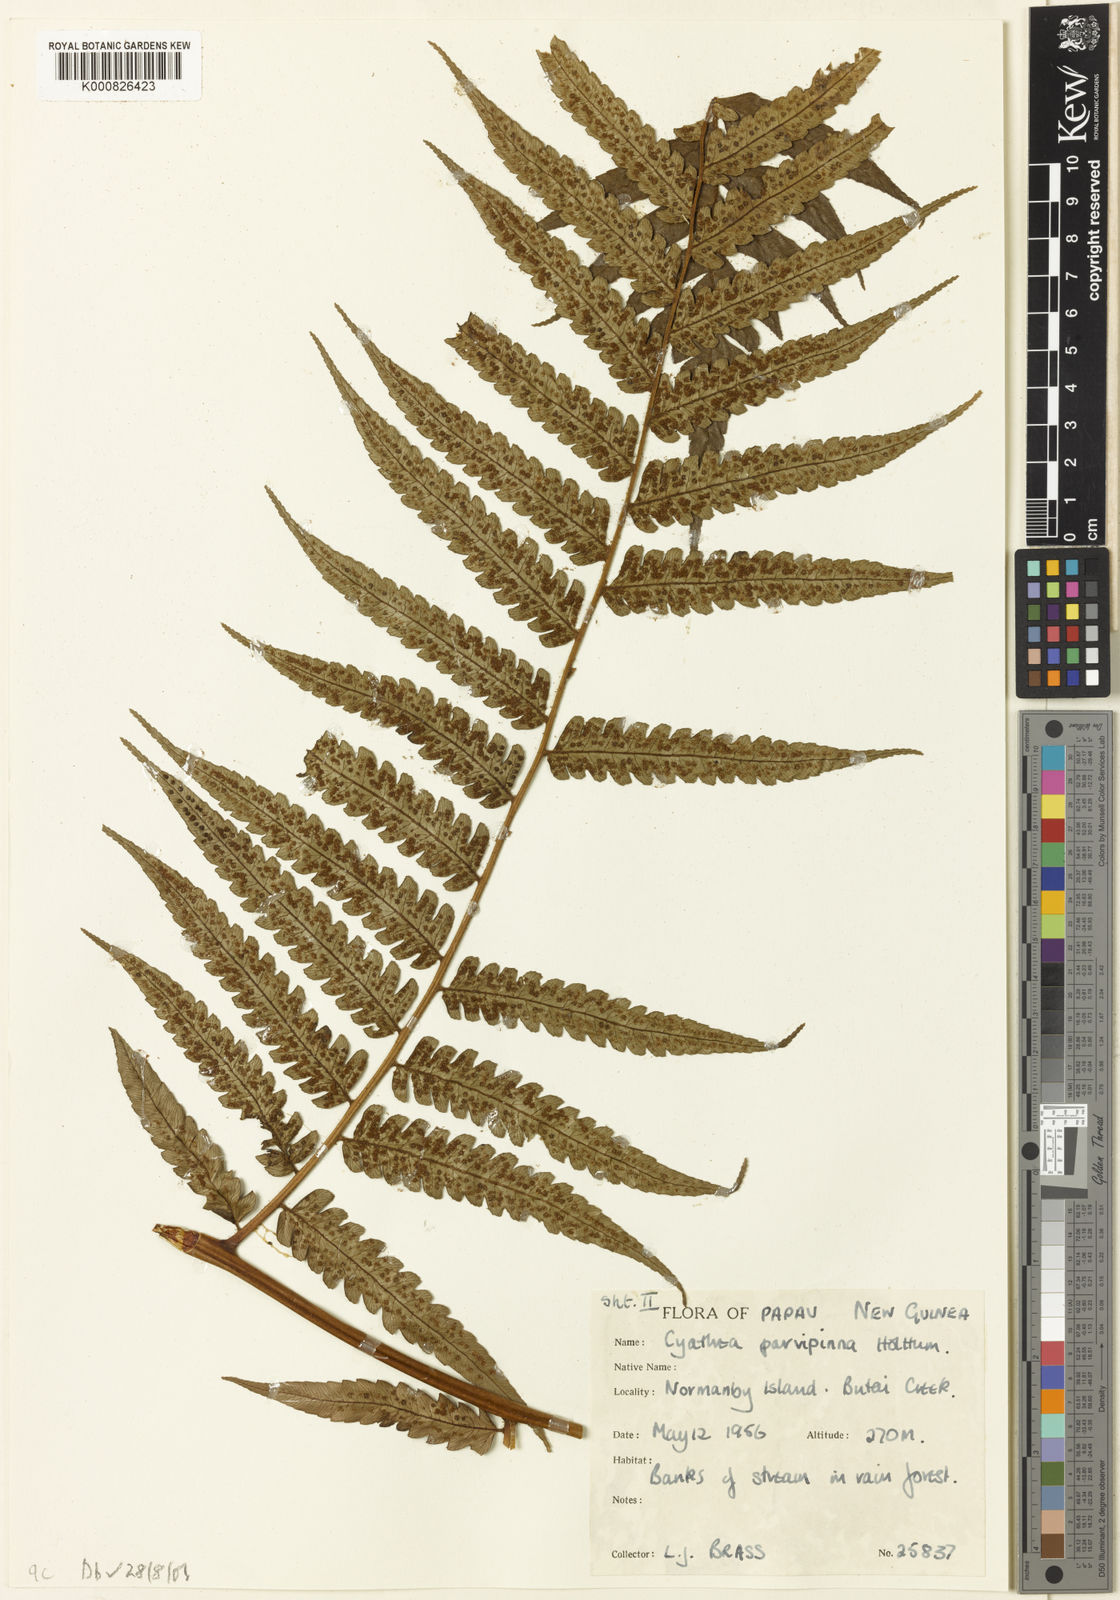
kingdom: Plantae
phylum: Tracheophyta
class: Polypodiopsida
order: Cyatheales
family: Cyatheaceae
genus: Sphaeropteris
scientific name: Sphaeropteris parvipinna
